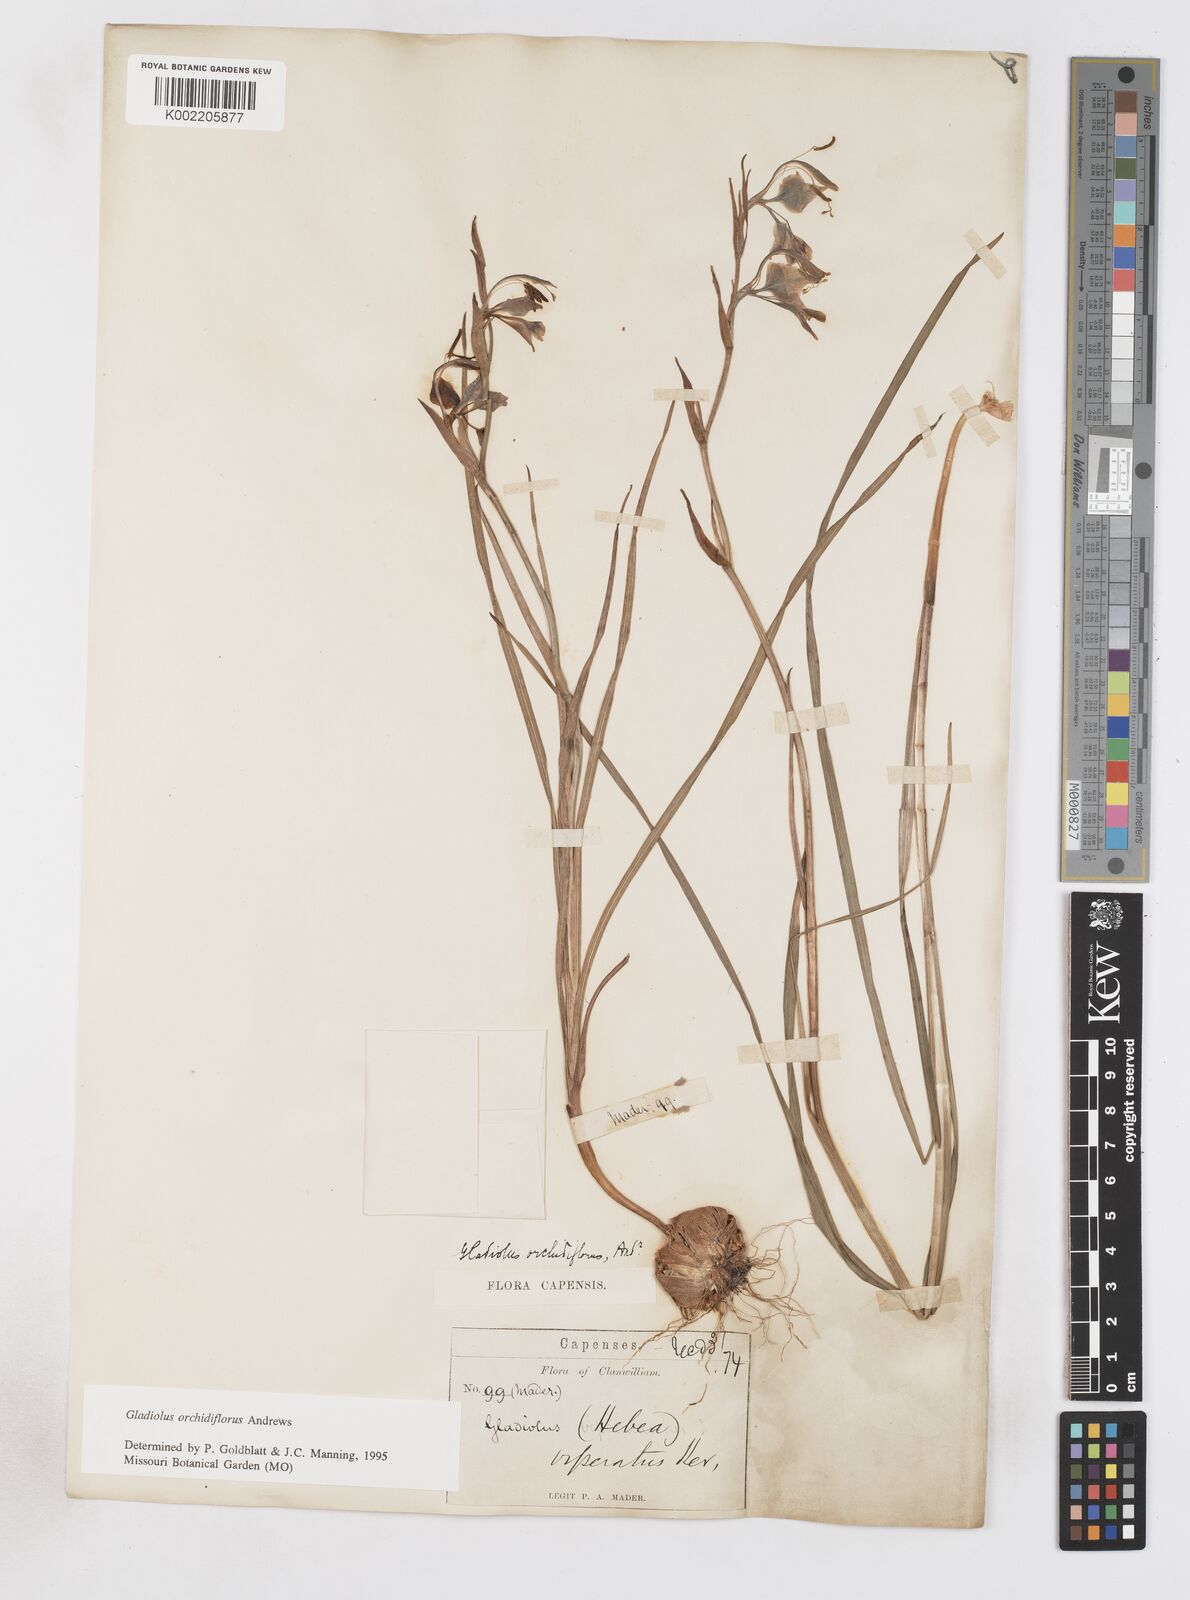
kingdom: Plantae
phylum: Tracheophyta
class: Liliopsida
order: Asparagales
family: Iridaceae
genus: Gladiolus
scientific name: Gladiolus orchidiflorus
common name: Gray kalkoentjie
